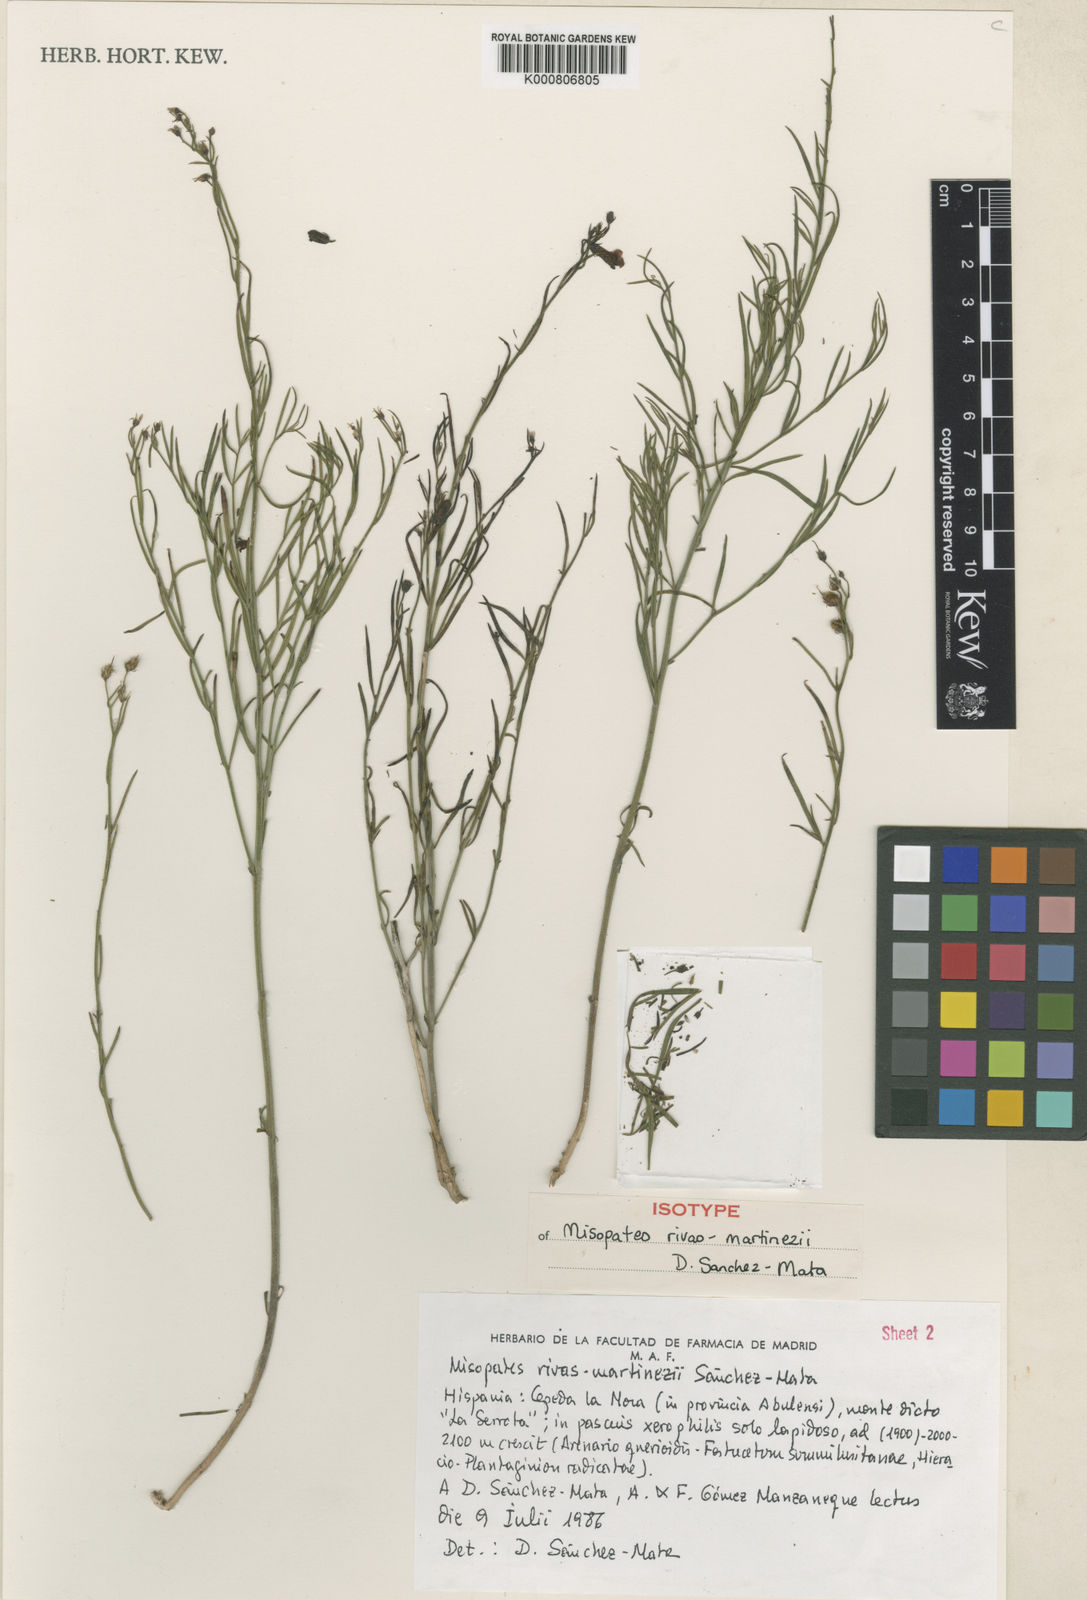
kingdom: Plantae
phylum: Tracheophyta
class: Magnoliopsida
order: Lamiales
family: Plantaginaceae
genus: Misopates
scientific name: Misopates calycinum
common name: Pale weasel's-snout
